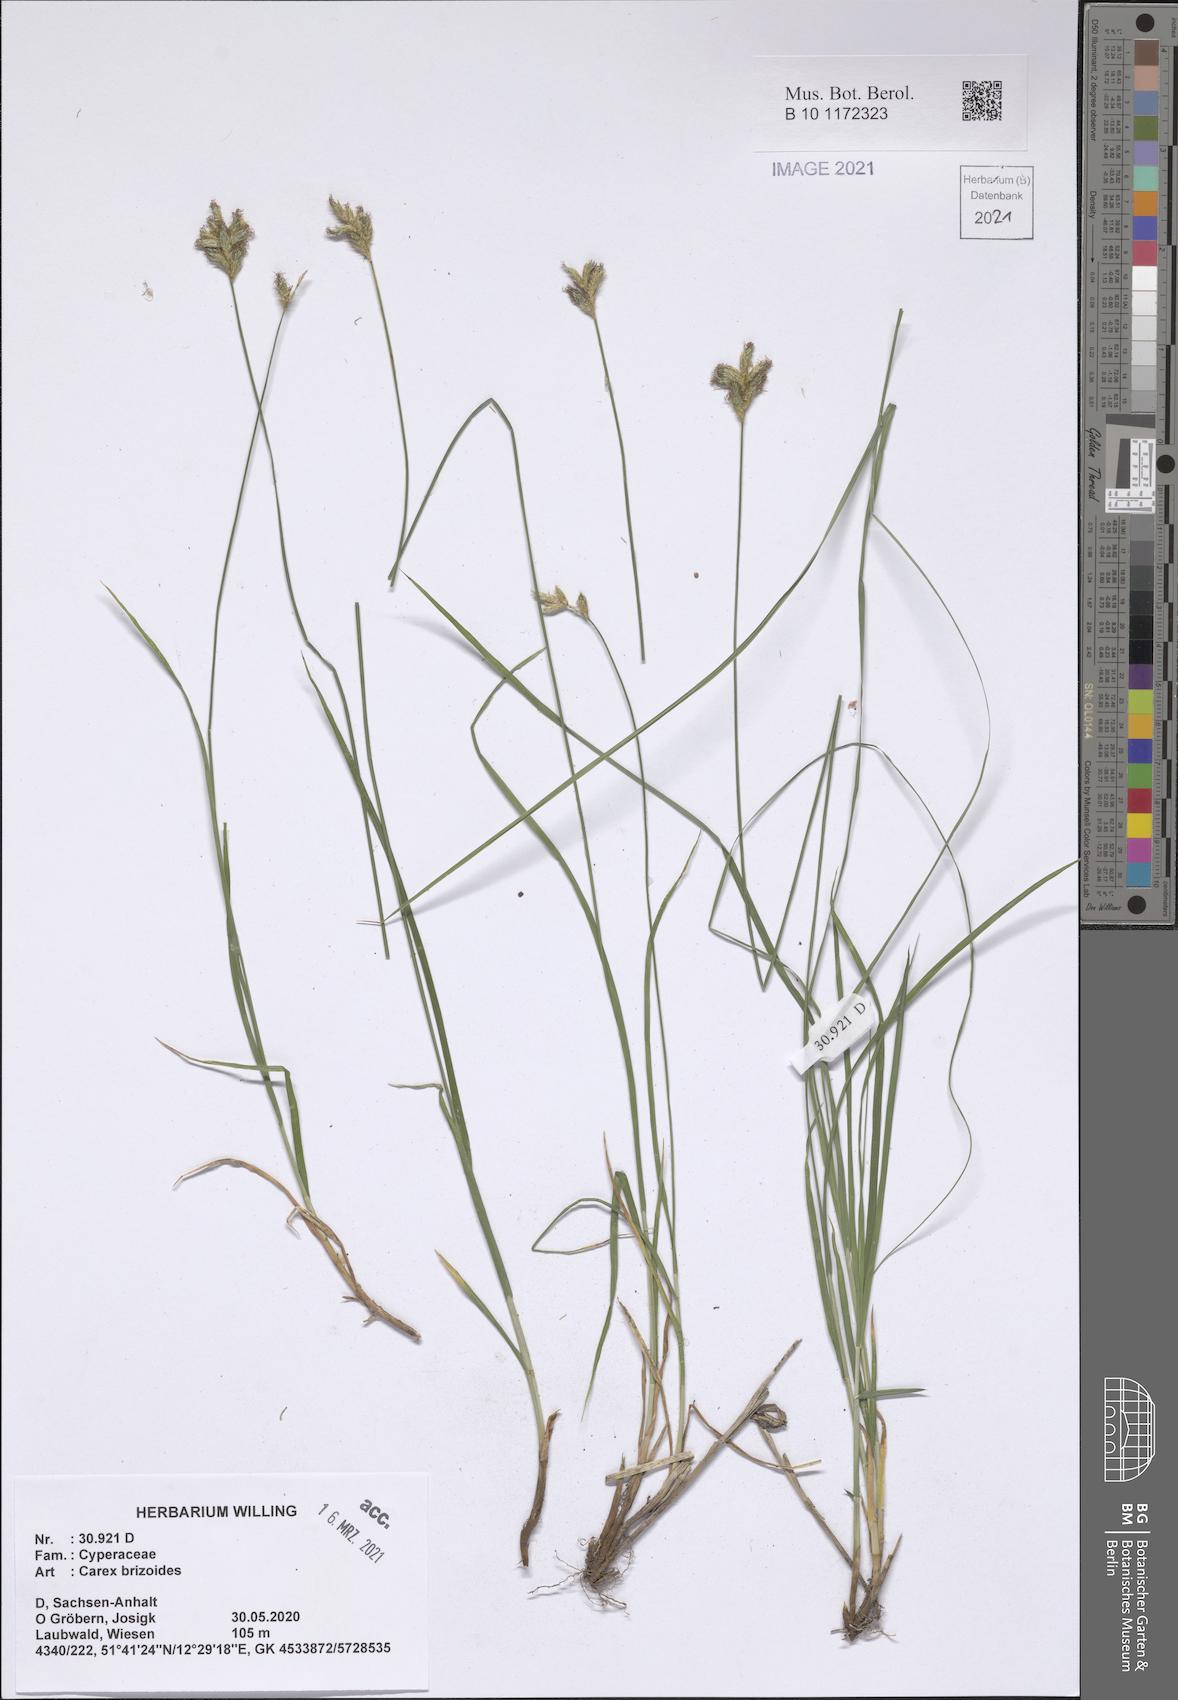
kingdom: Plantae
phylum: Tracheophyta
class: Liliopsida
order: Poales
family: Cyperaceae
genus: Carex
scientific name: Carex brizoides
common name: Quaking-grass sedge
